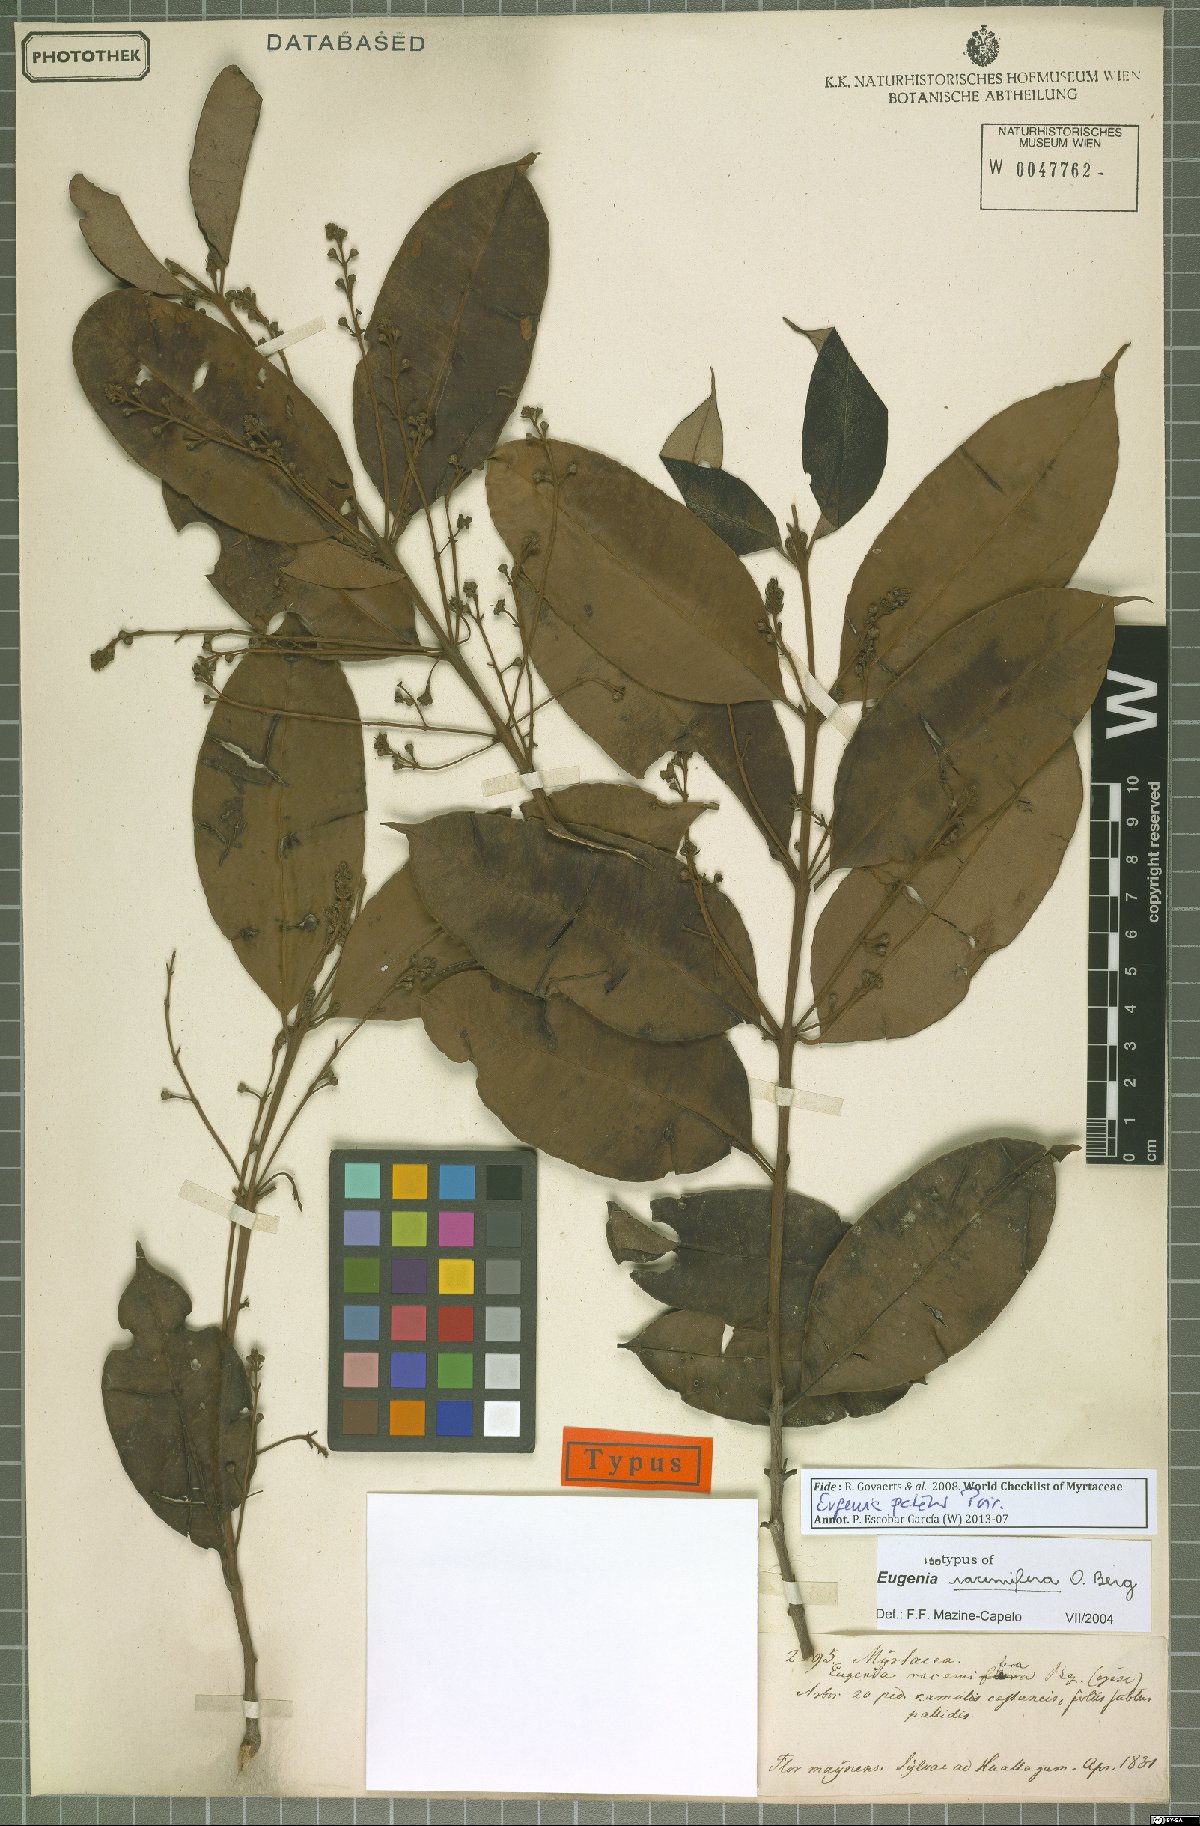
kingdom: Plantae
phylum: Tracheophyta
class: Magnoliopsida
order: Myrtales
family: Myrtaceae
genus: Eugenia
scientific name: Eugenia patens
